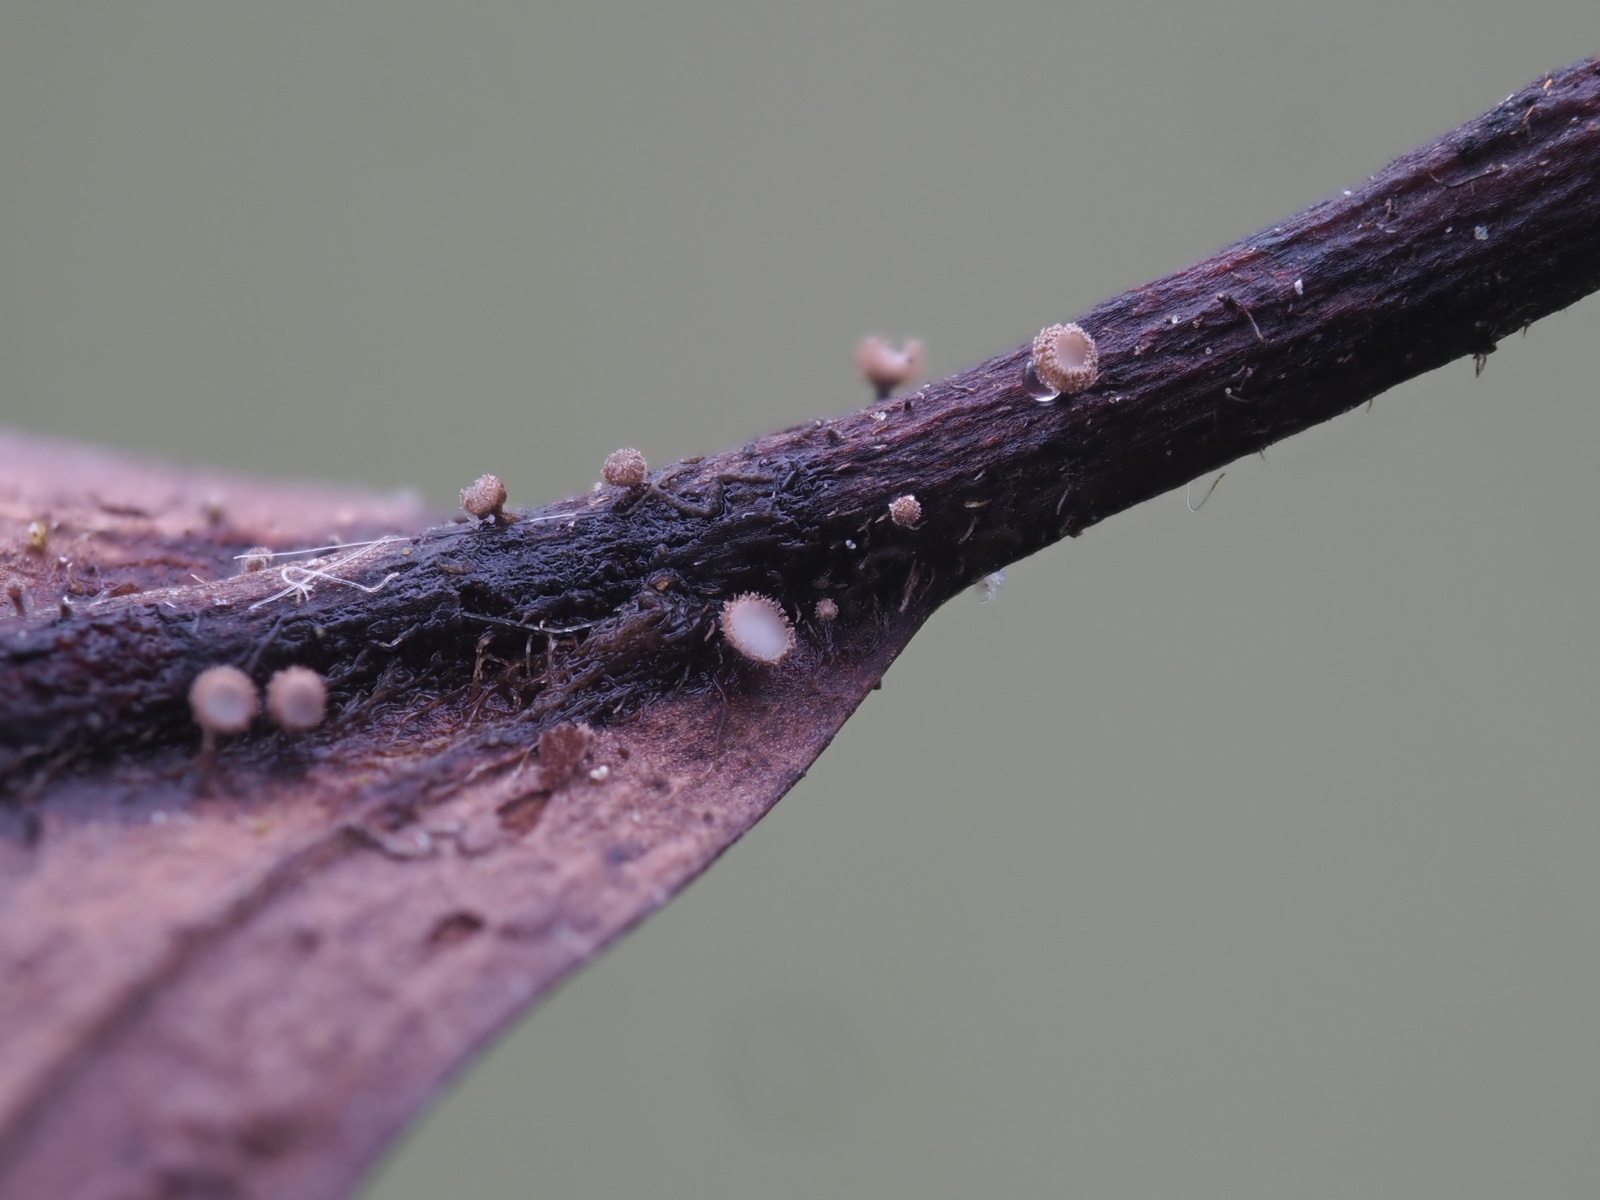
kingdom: Fungi
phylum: Ascomycota
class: Leotiomycetes
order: Helotiales
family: Lachnaceae
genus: Brunnipila
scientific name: Brunnipila fuscescens
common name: bøge-frynseskive
